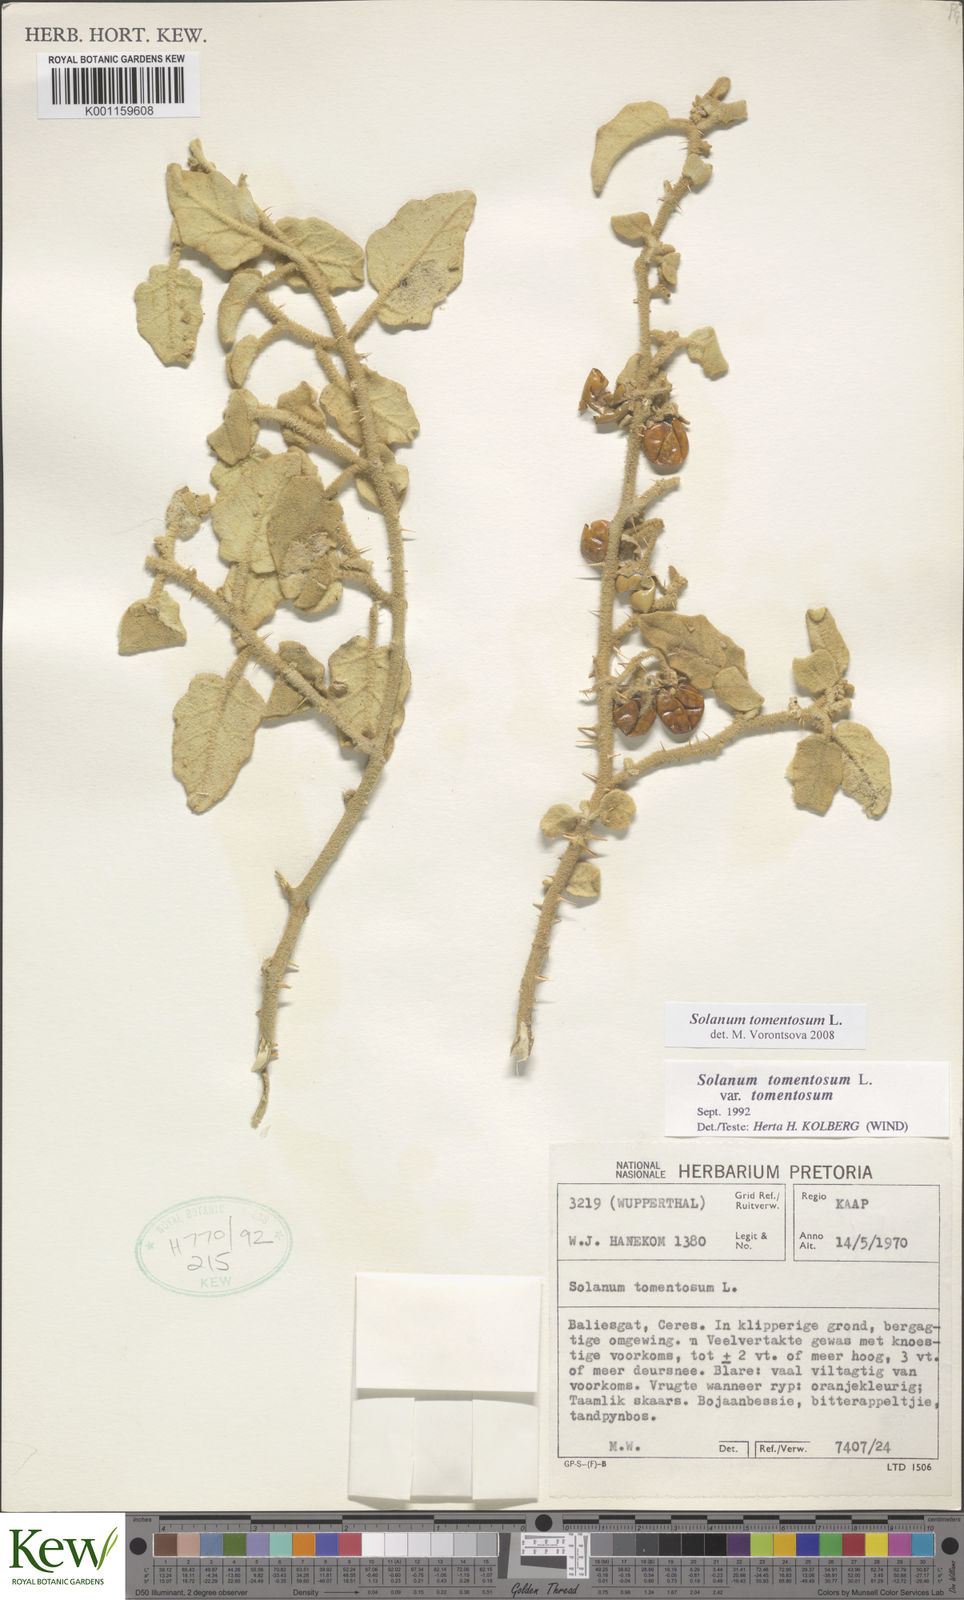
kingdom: Plantae
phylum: Tracheophyta
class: Magnoliopsida
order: Solanales
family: Solanaceae
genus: Solanum
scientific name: Solanum tomentosum
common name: Wild aubergine
